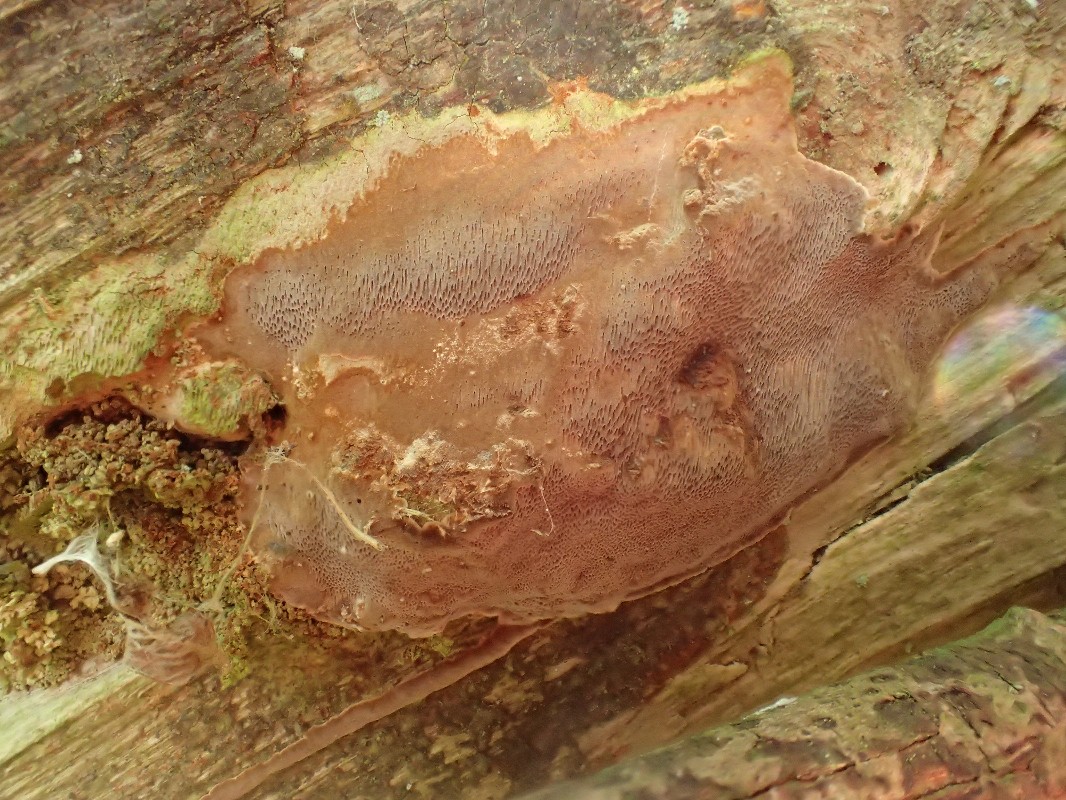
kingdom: Fungi
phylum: Basidiomycota
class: Agaricomycetes
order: Hymenochaetales
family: Hymenochaetaceae
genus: Fomitiporia
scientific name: Fomitiporia punctata
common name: pude-ildporesvamp
